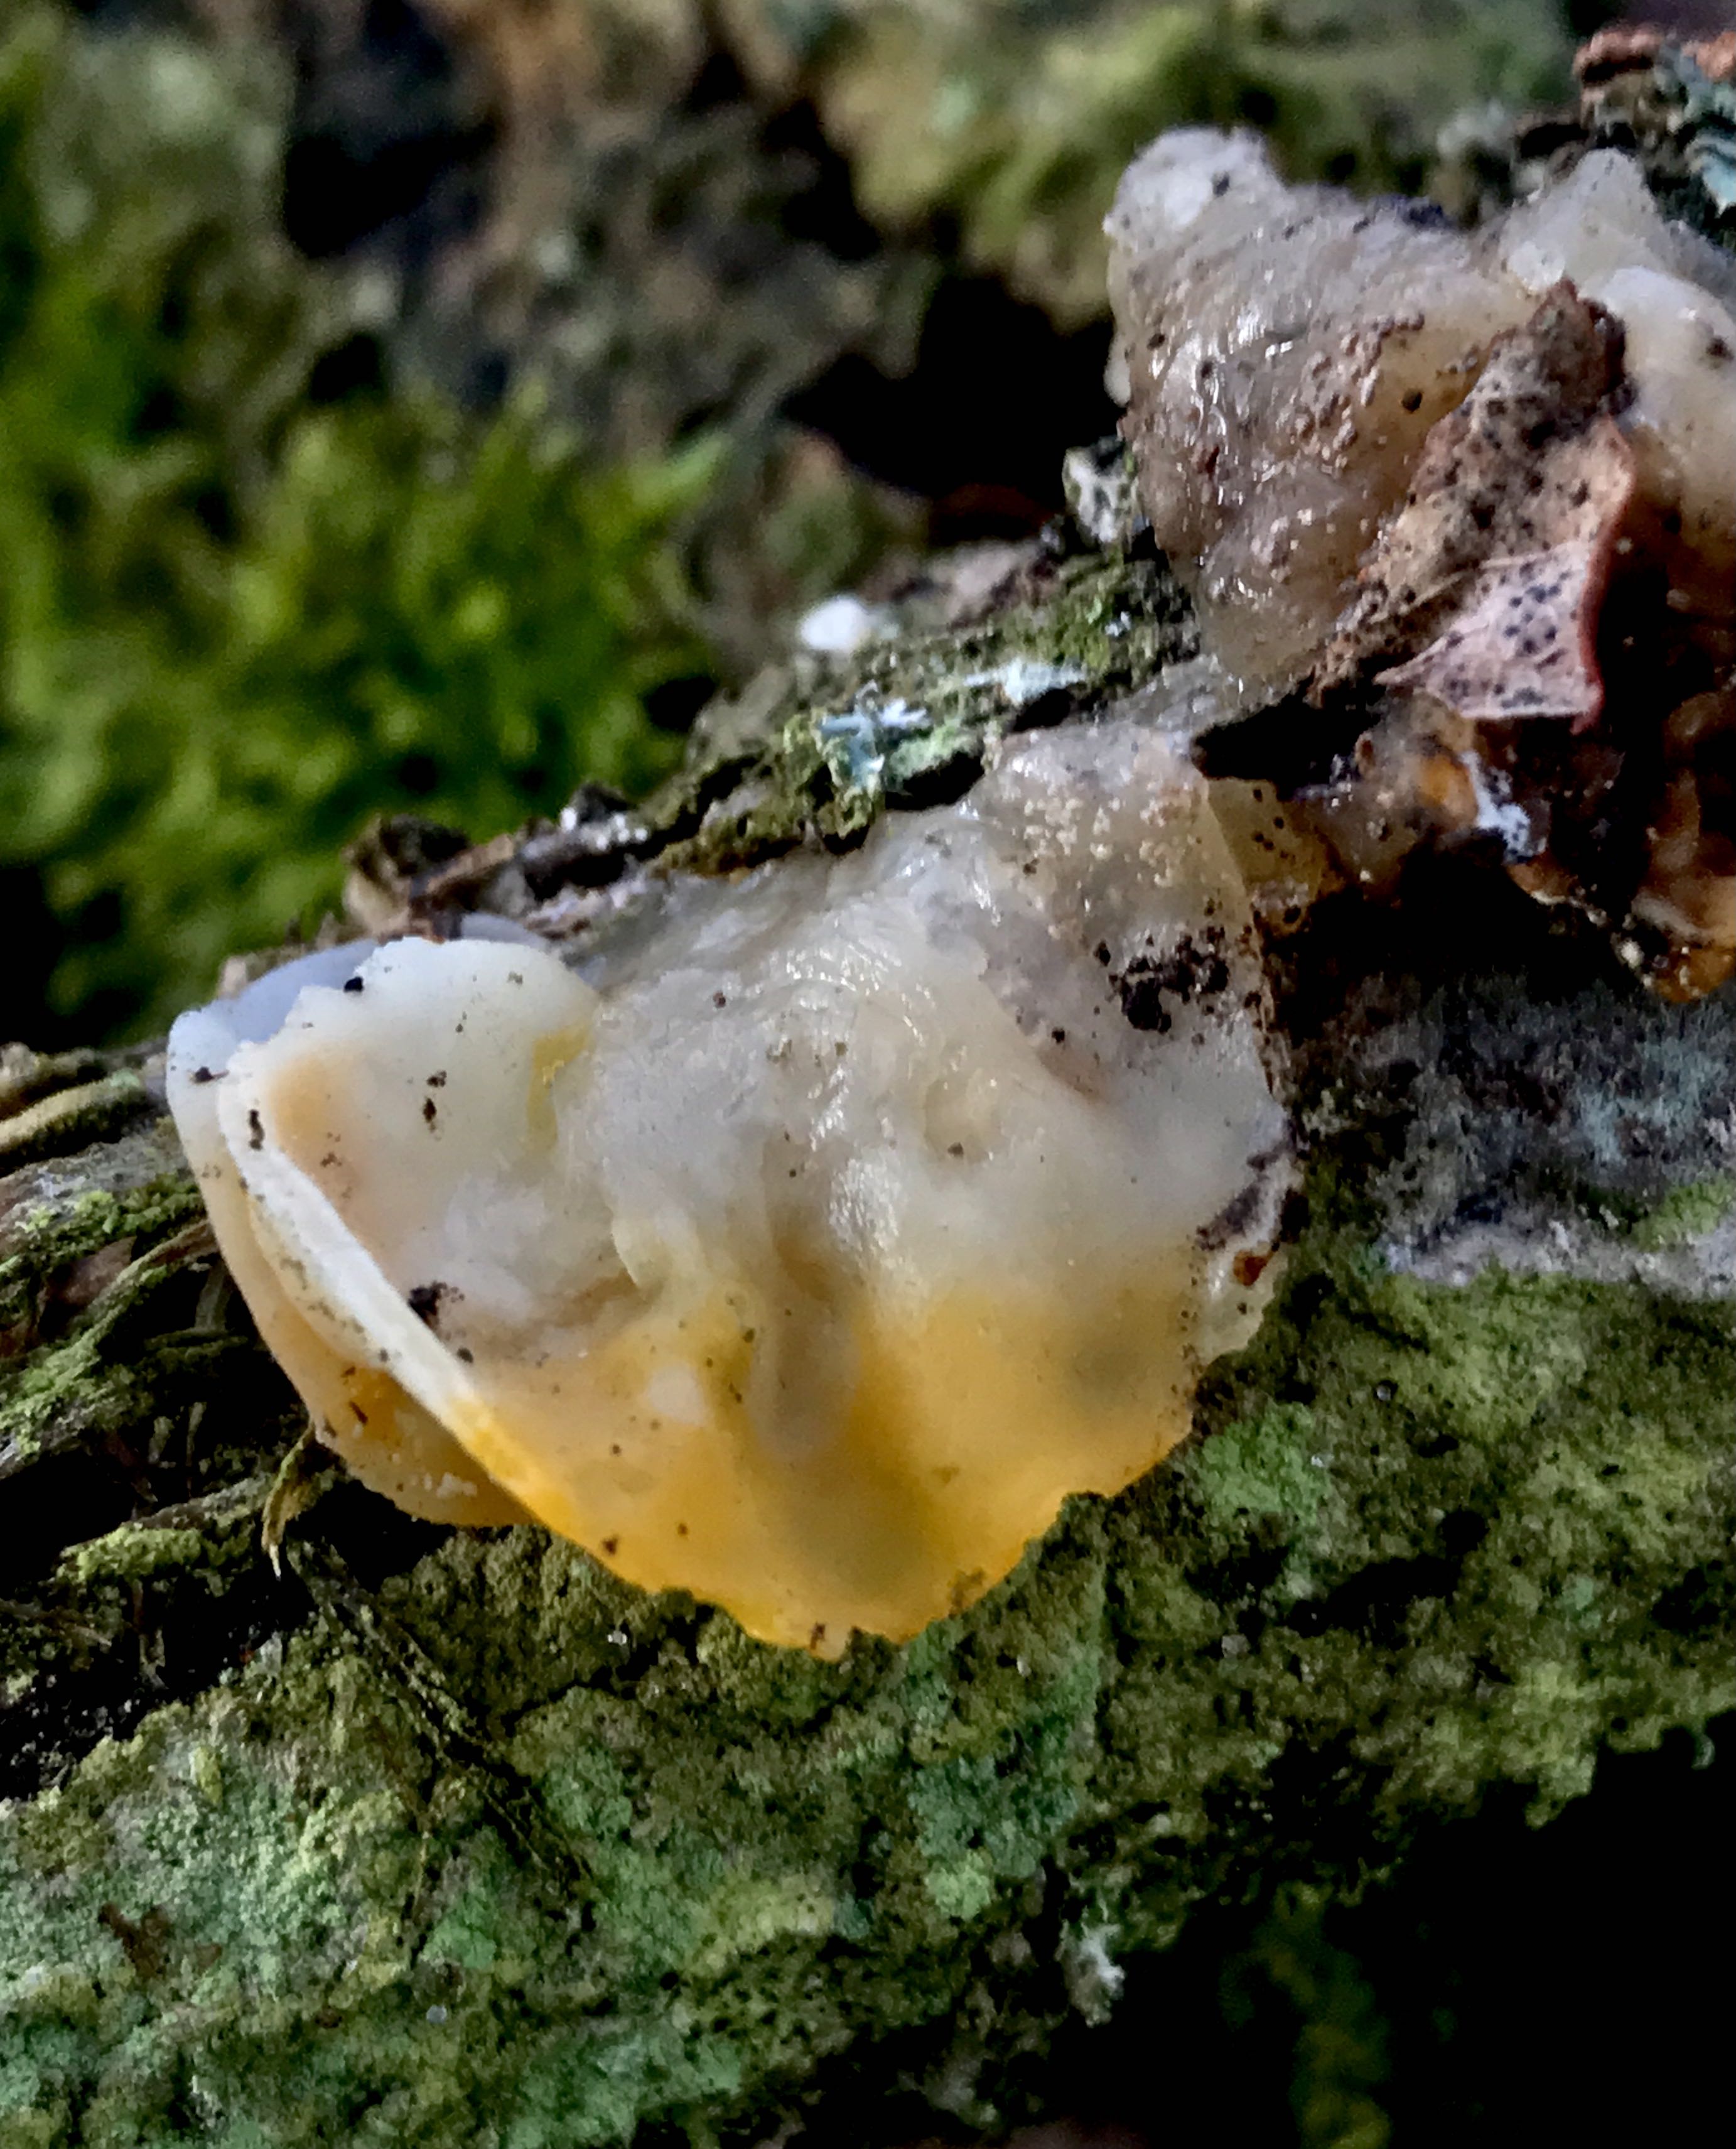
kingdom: Fungi
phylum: Basidiomycota
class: Tremellomycetes
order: Tremellales
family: Tremellaceae
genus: Tremella
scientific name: Tremella mesenterica
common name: gul bævresvamp
